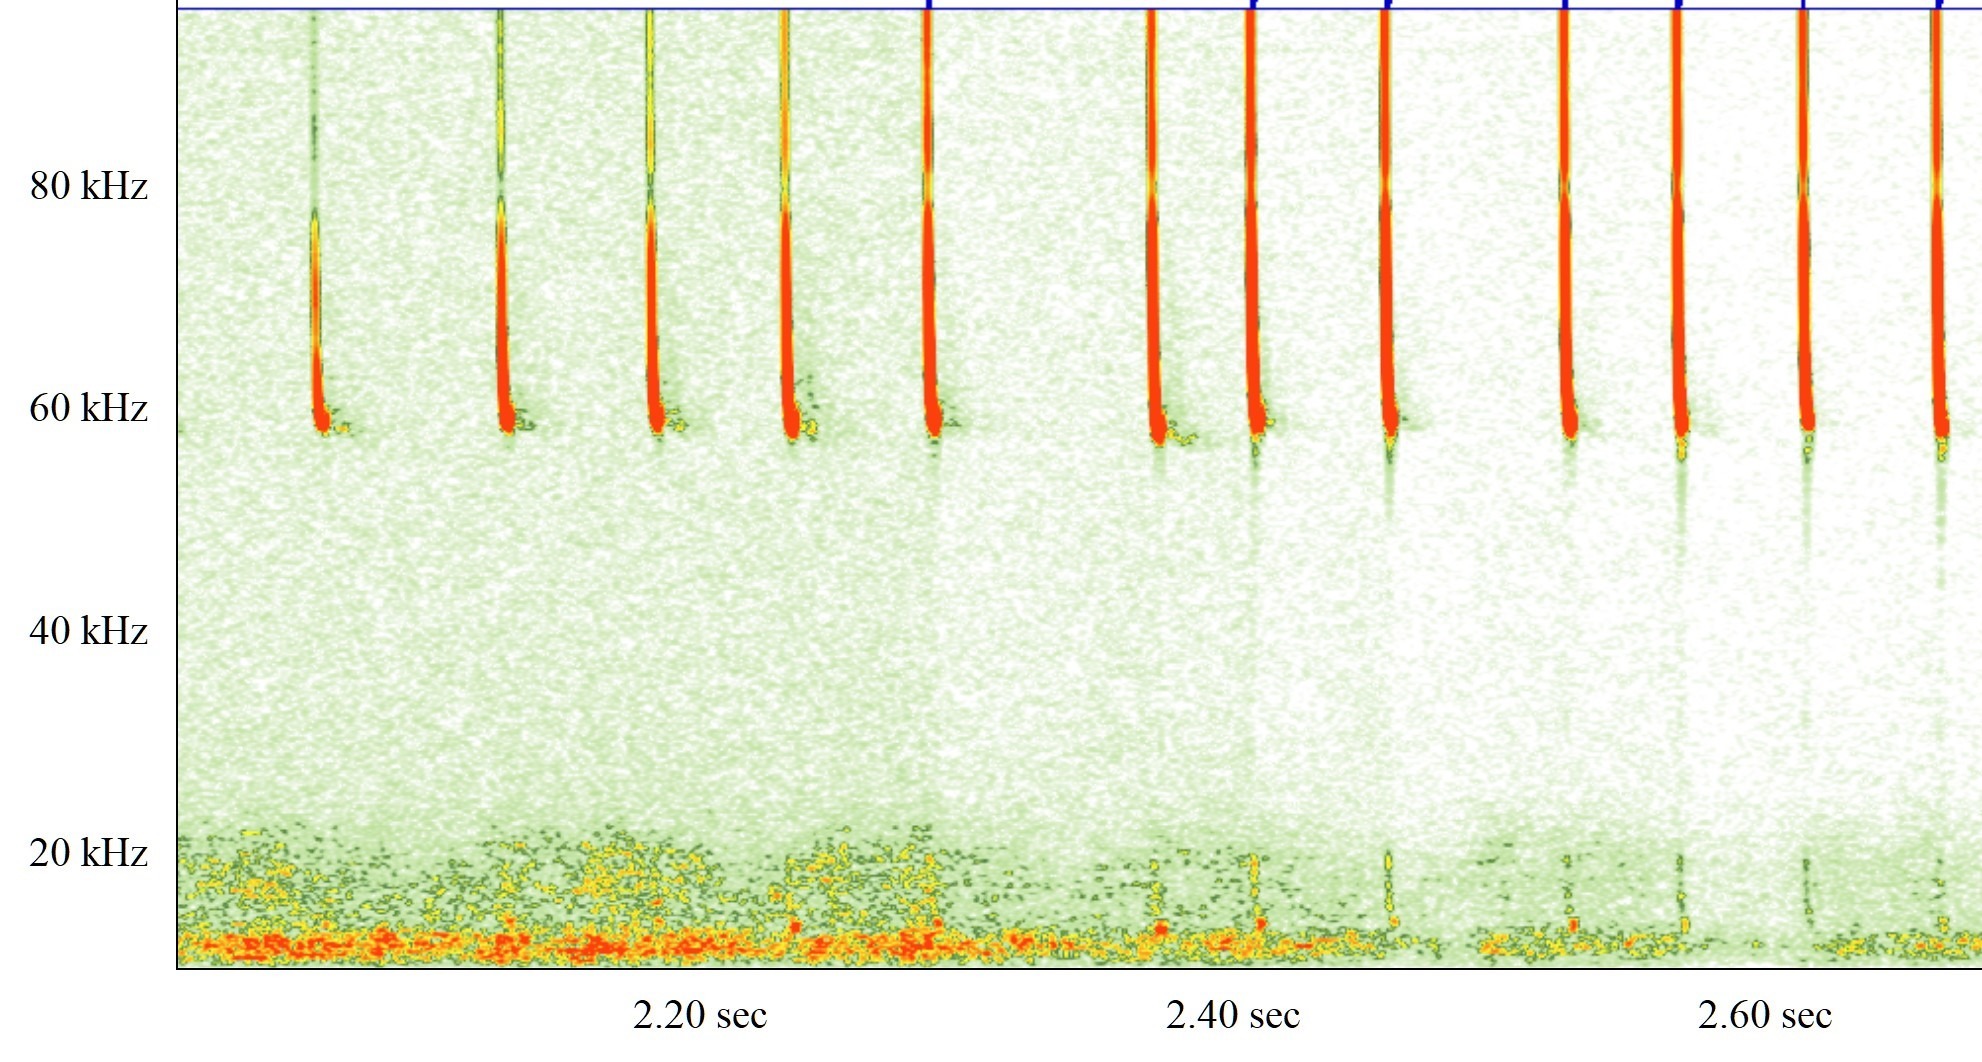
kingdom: Animalia
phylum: Chordata
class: Mammalia
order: Chiroptera
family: Vespertilionidae
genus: Pipistrellus
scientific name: Pipistrellus pygmaeus
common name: Dværgflagermus
